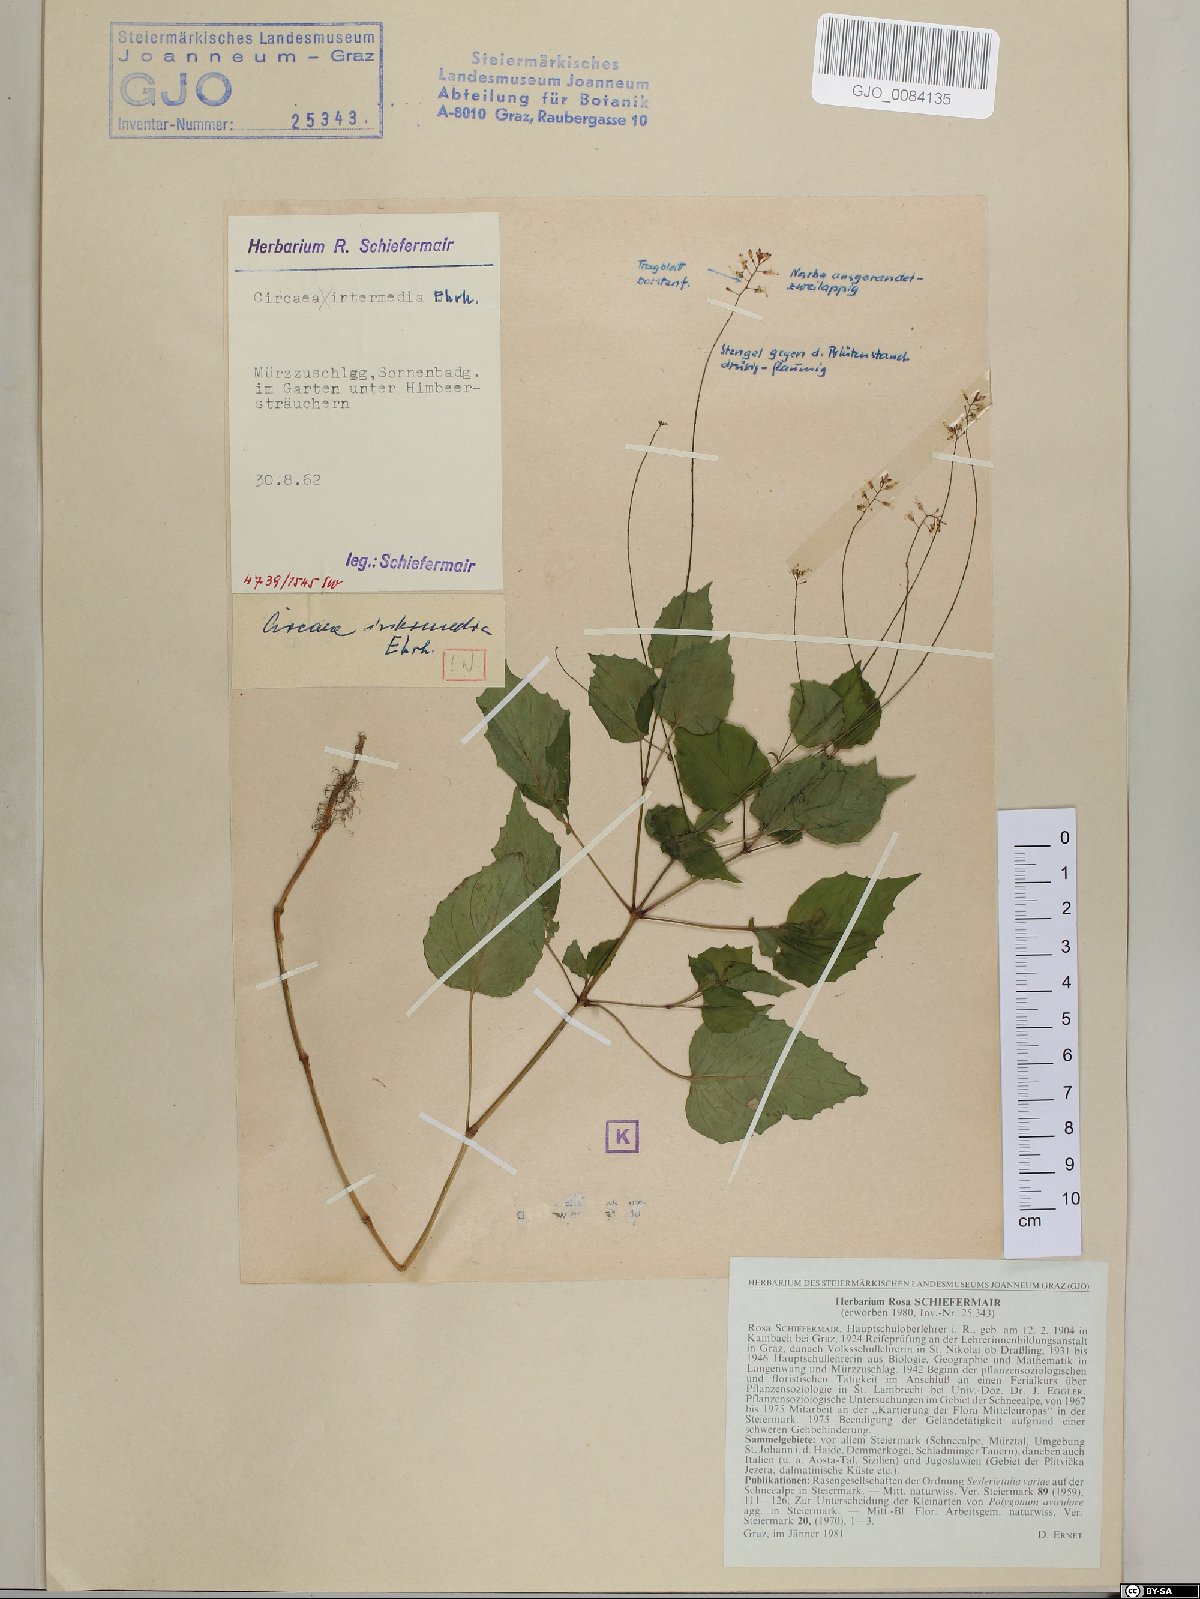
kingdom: Plantae
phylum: Tracheophyta
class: Magnoliopsida
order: Myrtales
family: Onagraceae
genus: Circaea
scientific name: Circaea intermedia
